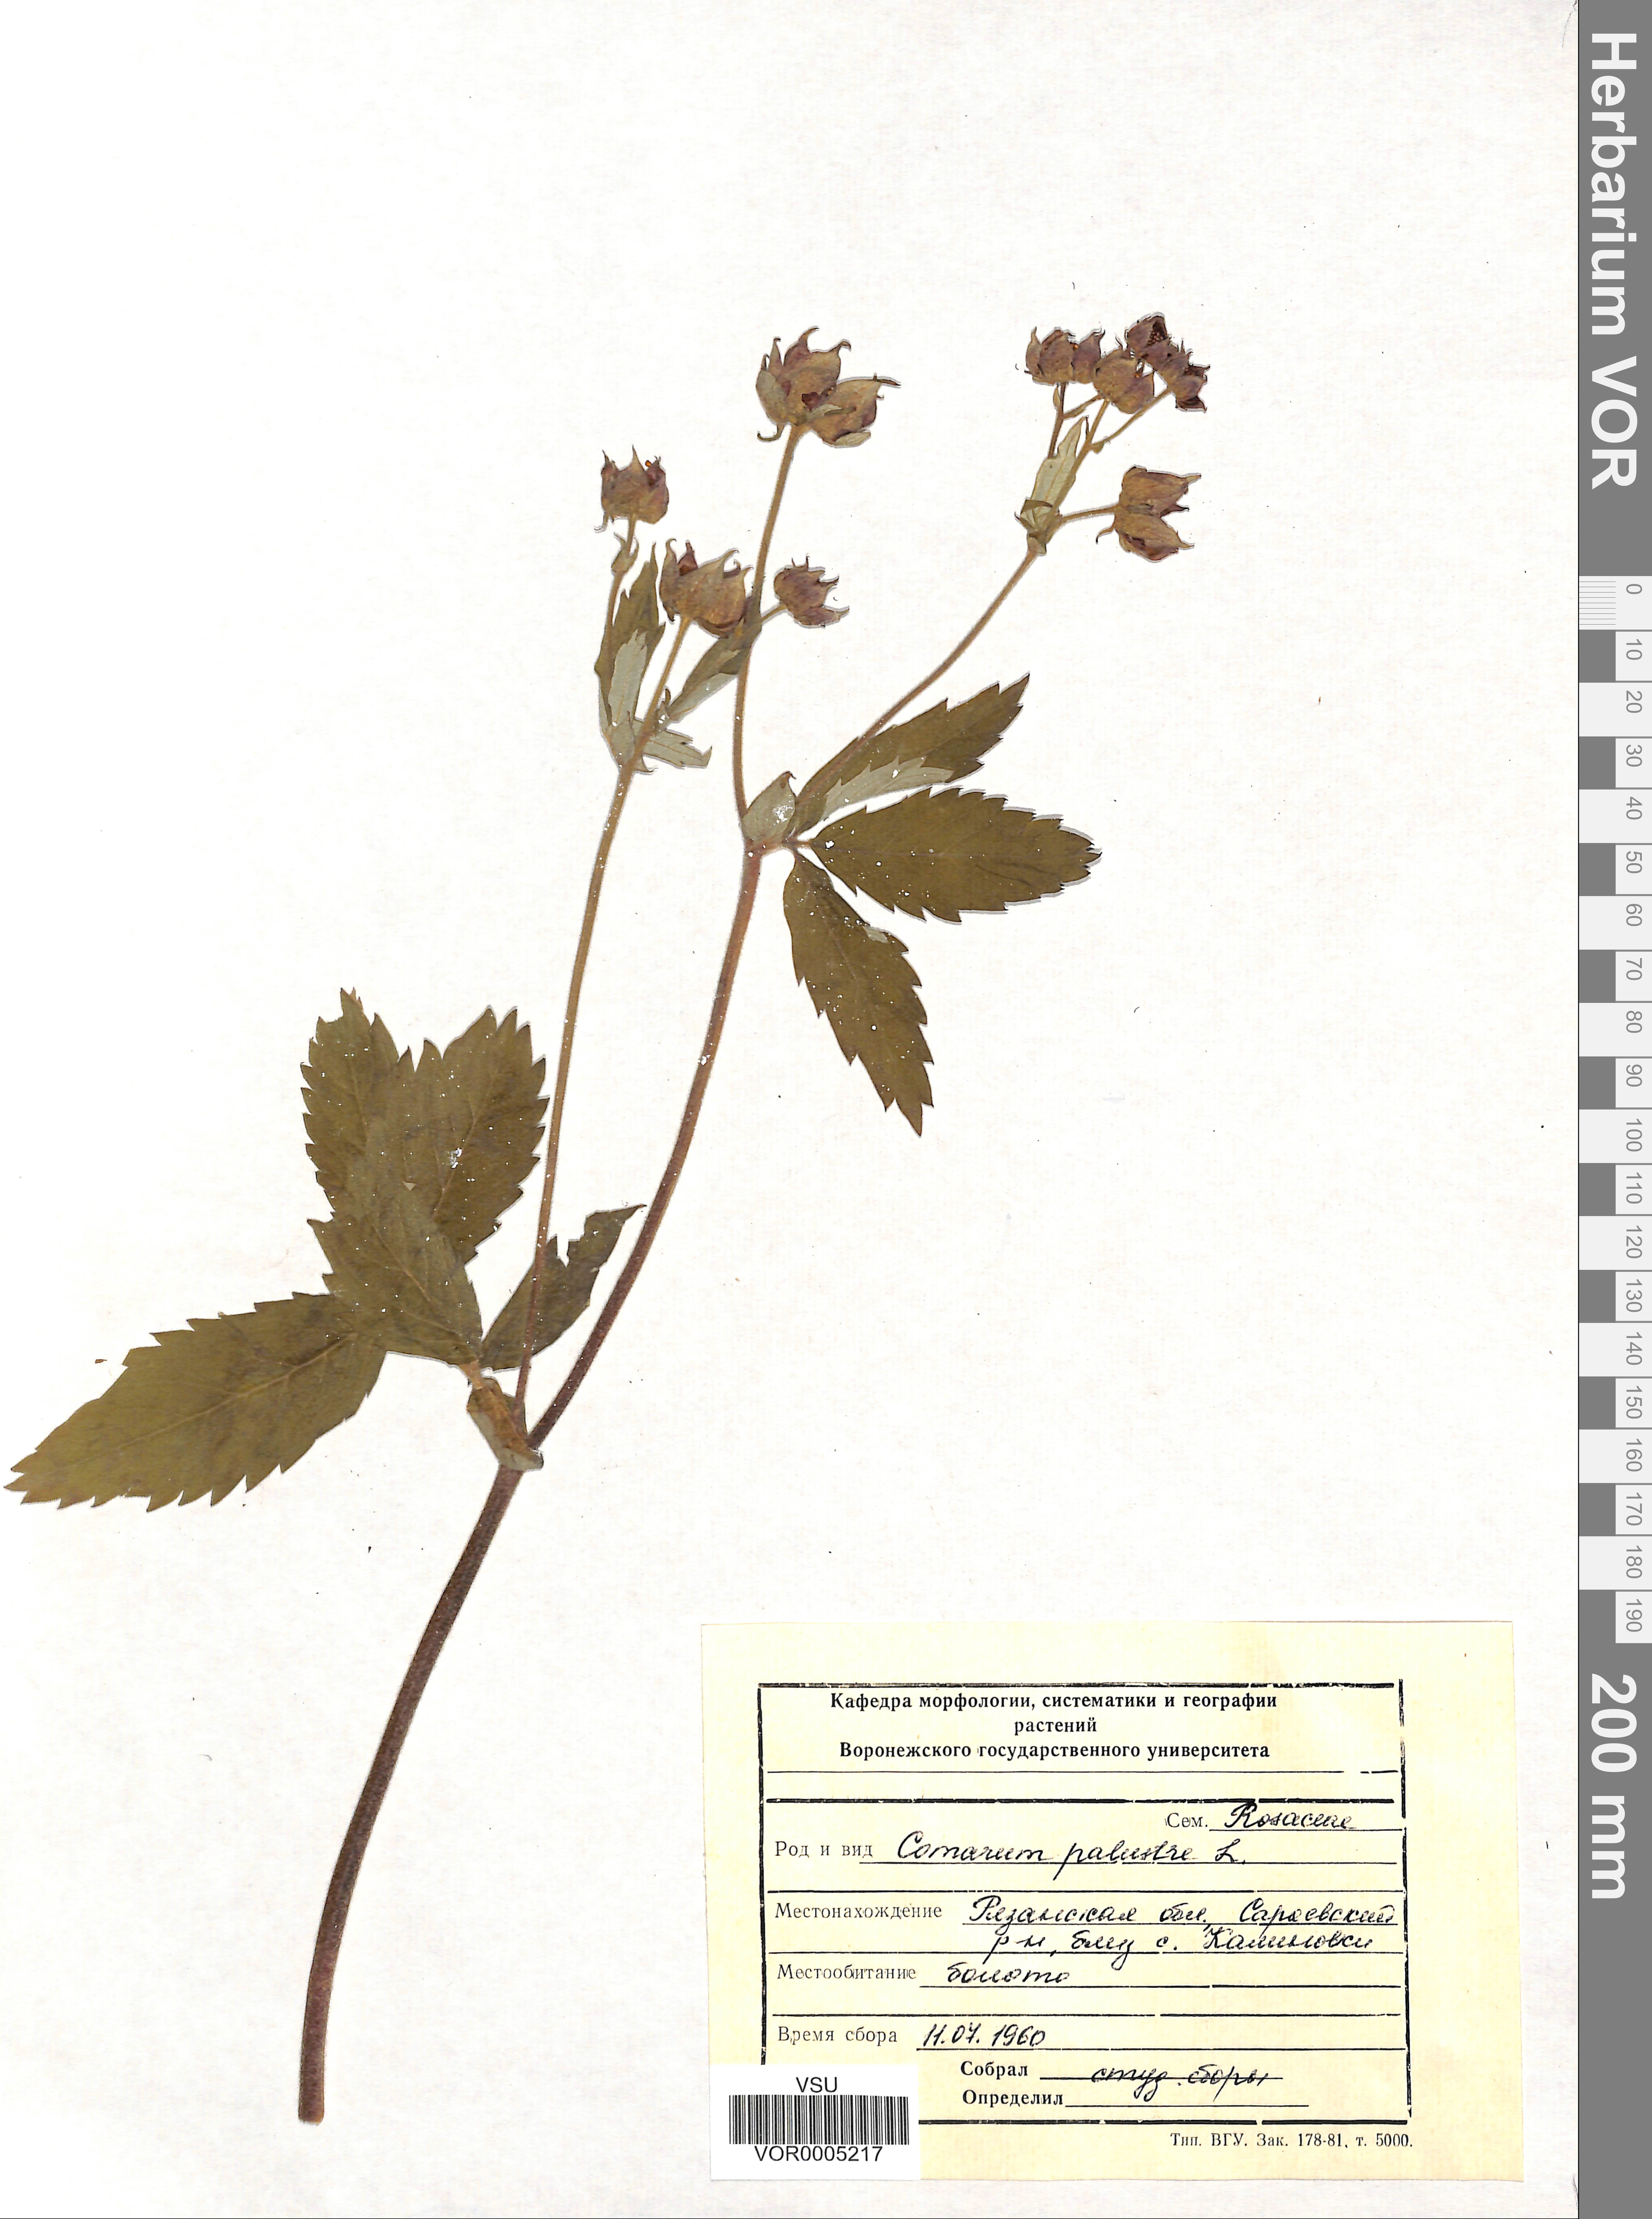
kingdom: Plantae
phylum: Tracheophyta
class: Magnoliopsida
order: Rosales
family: Rosaceae
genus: Comarum
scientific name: Comarum palustre
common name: Marsh cinquefoil
